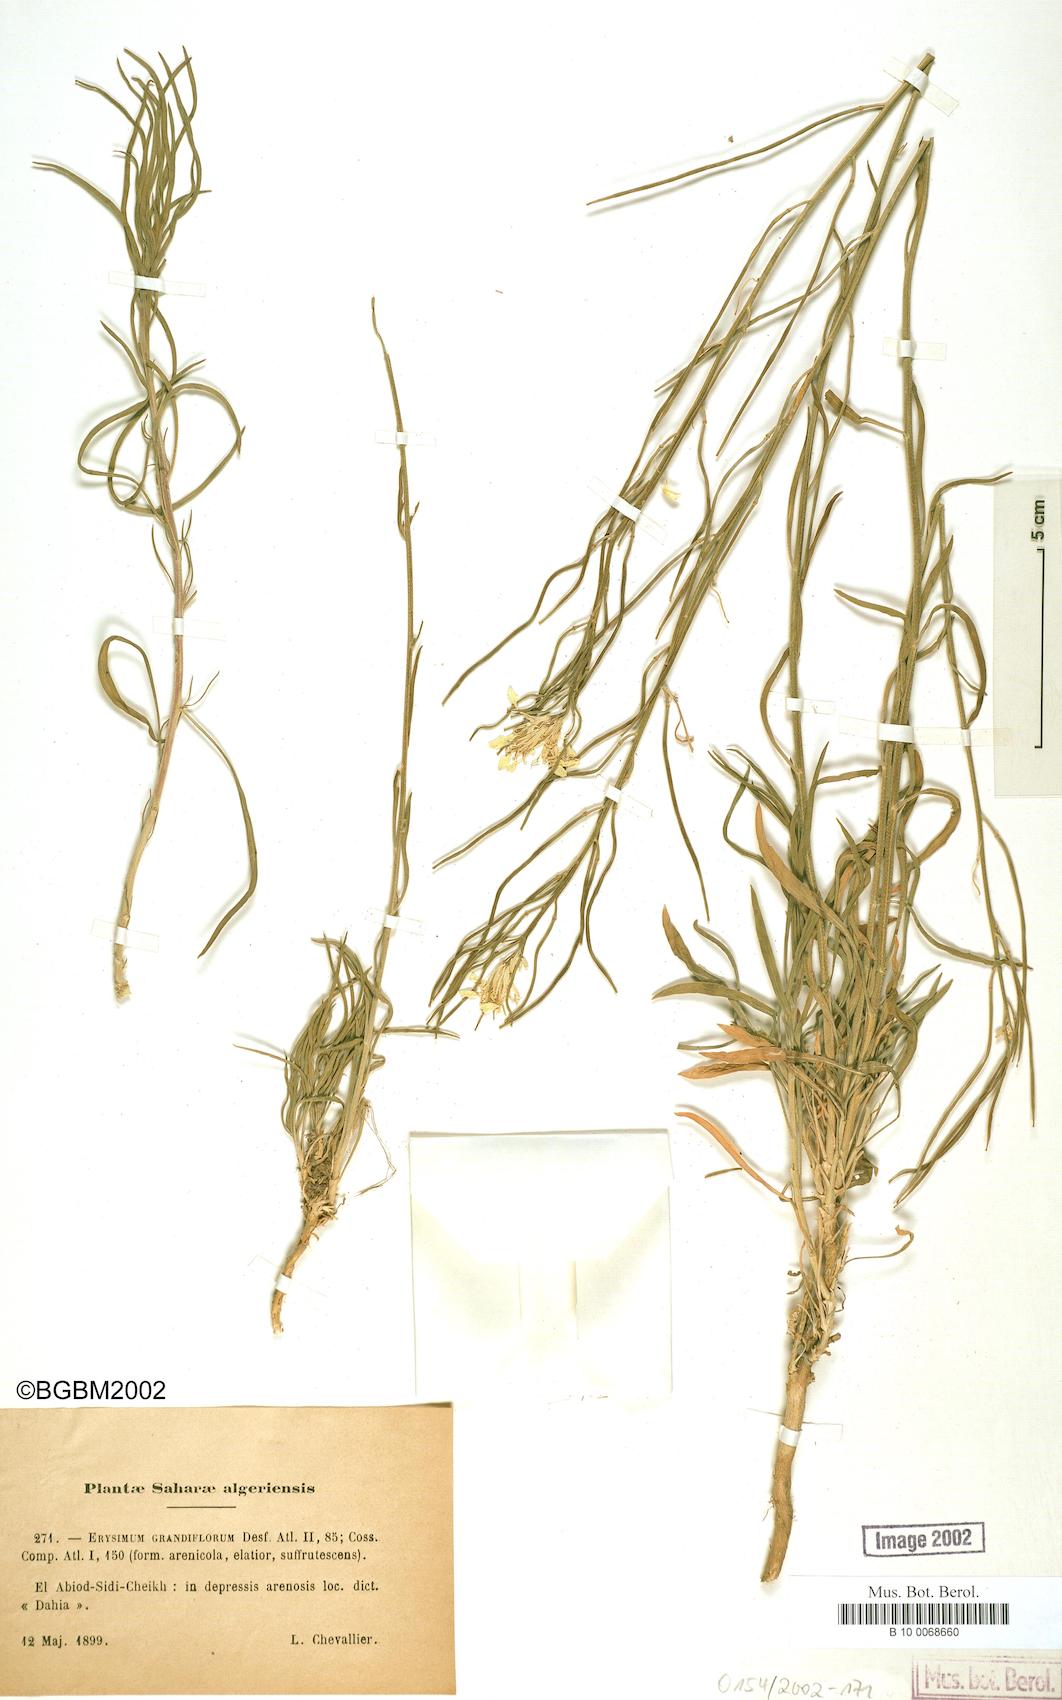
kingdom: Plantae
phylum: Tracheophyta
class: Magnoliopsida
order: Brassicales
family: Brassicaceae
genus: Erysimum
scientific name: Erysimum nervosum
